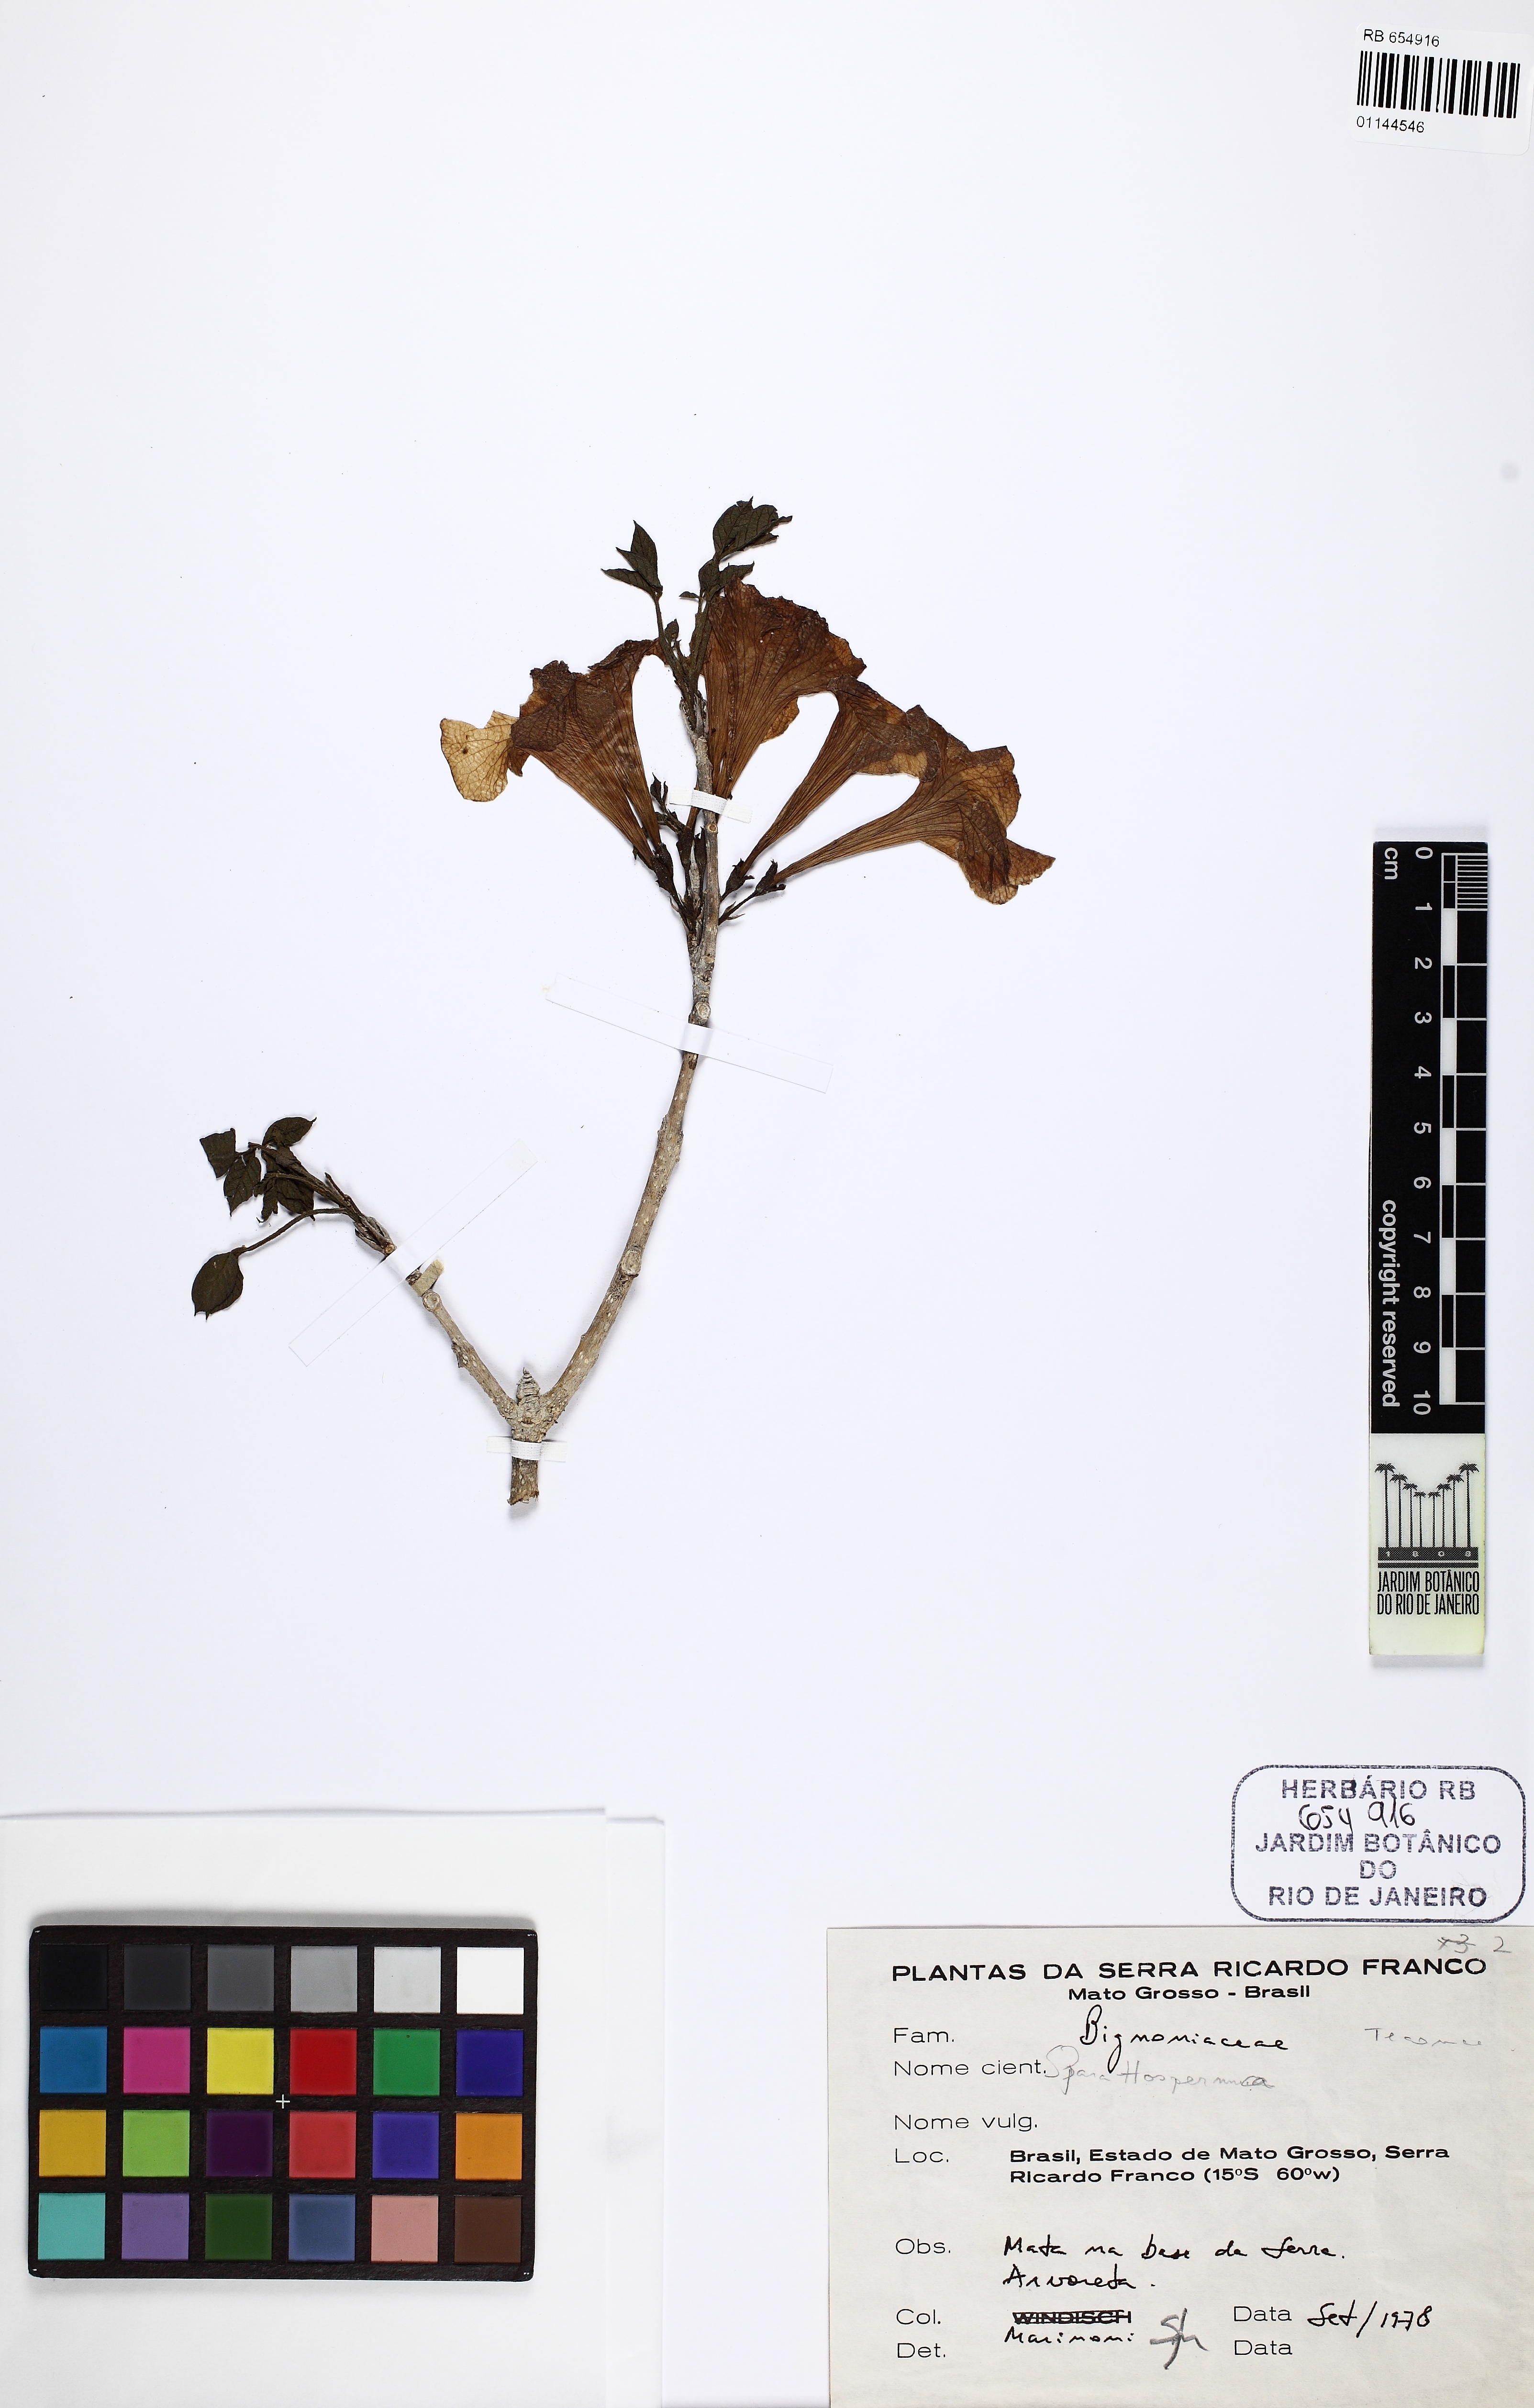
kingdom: Plantae
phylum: Tracheophyta
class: Magnoliopsida
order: Lamiales
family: Bignoniaceae
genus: Tabebuia
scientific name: Tabebuia
